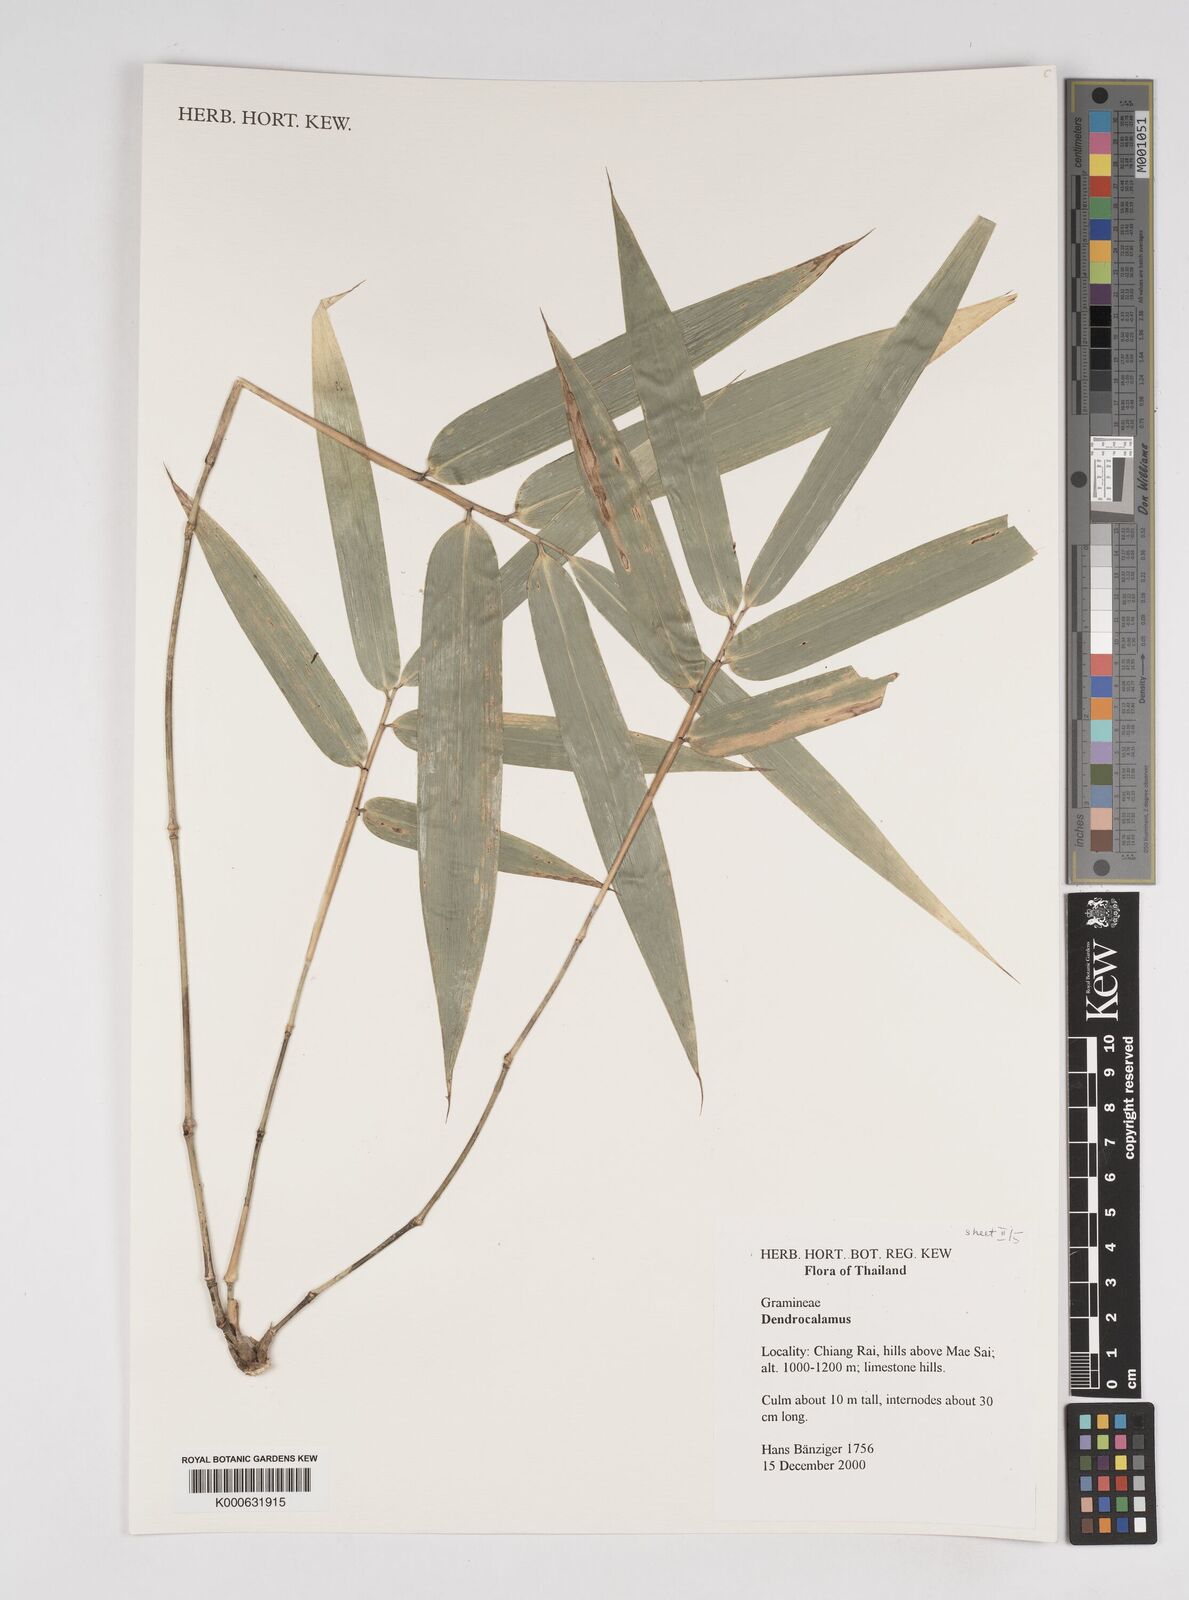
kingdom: Plantae
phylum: Tracheophyta
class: Liliopsida
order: Poales
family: Poaceae
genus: Dendrocalamus
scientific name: Dendrocalamus brandisii
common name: Velvetleaf bamboo
